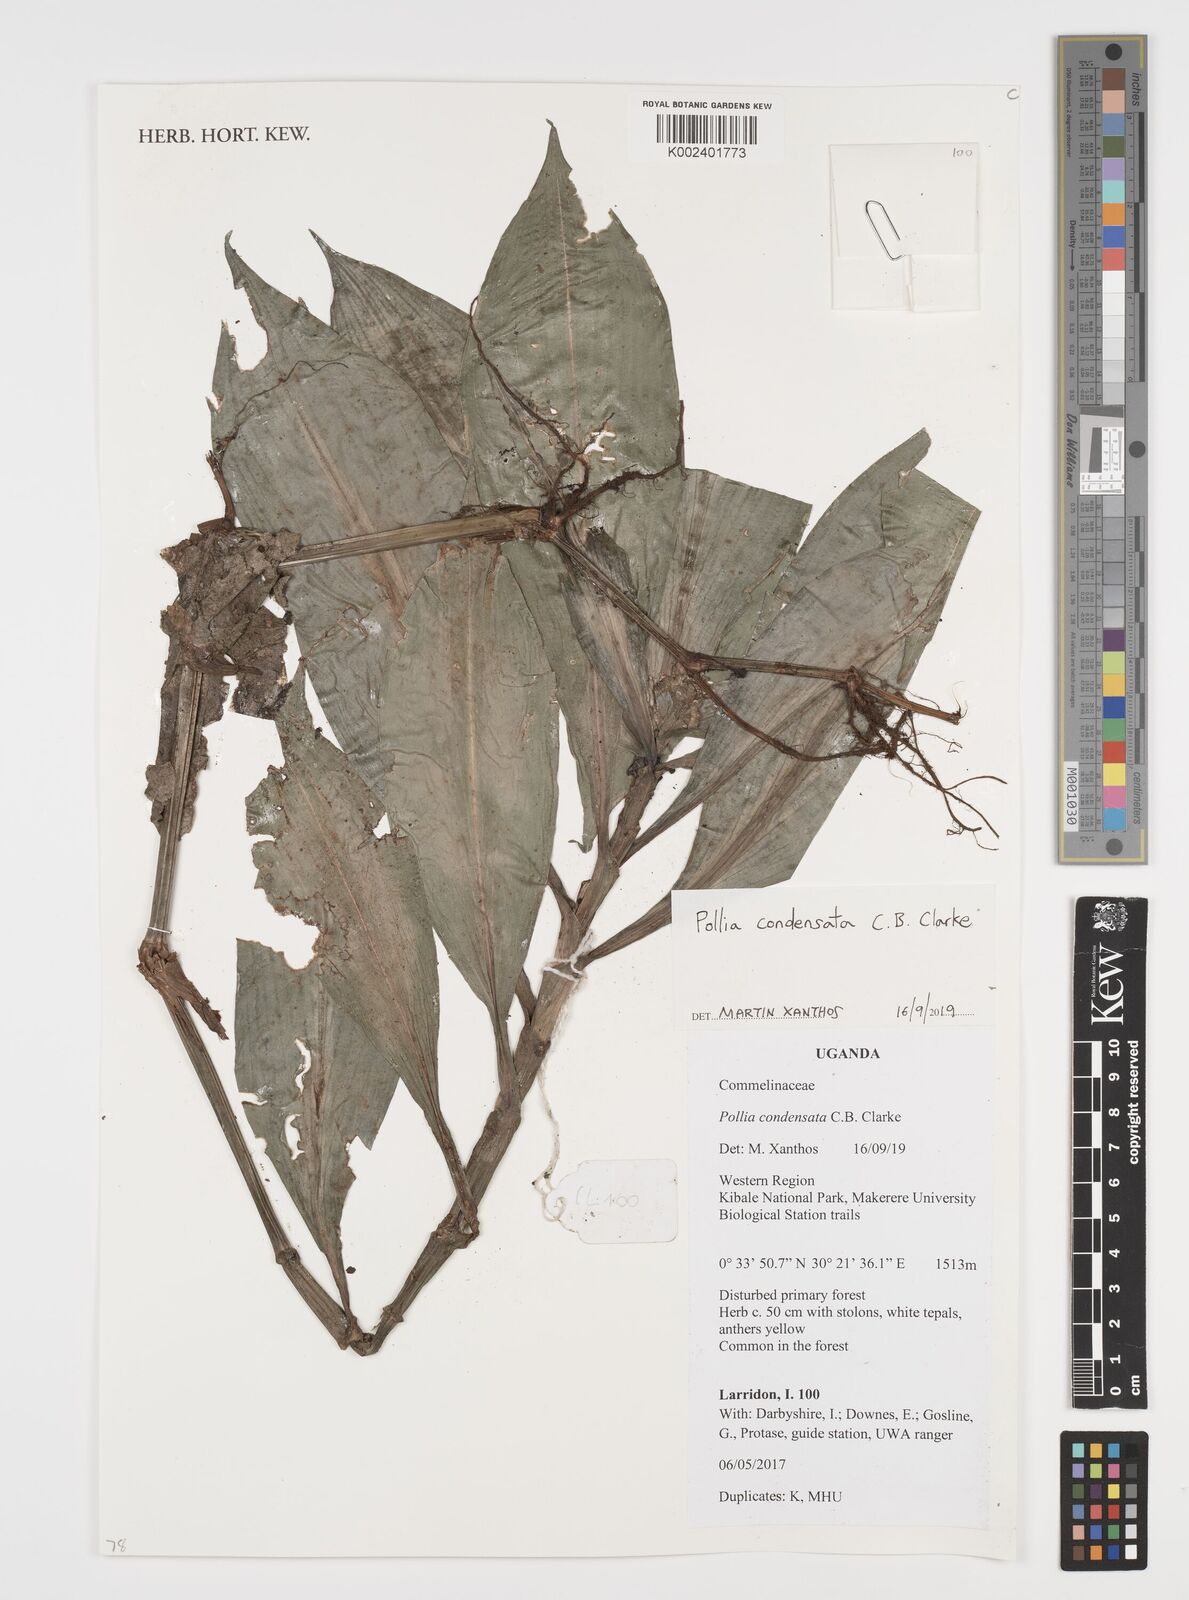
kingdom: Plantae
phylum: Tracheophyta
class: Liliopsida
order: Commelinales
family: Commelinaceae
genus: Pollia
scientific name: Pollia condensata
